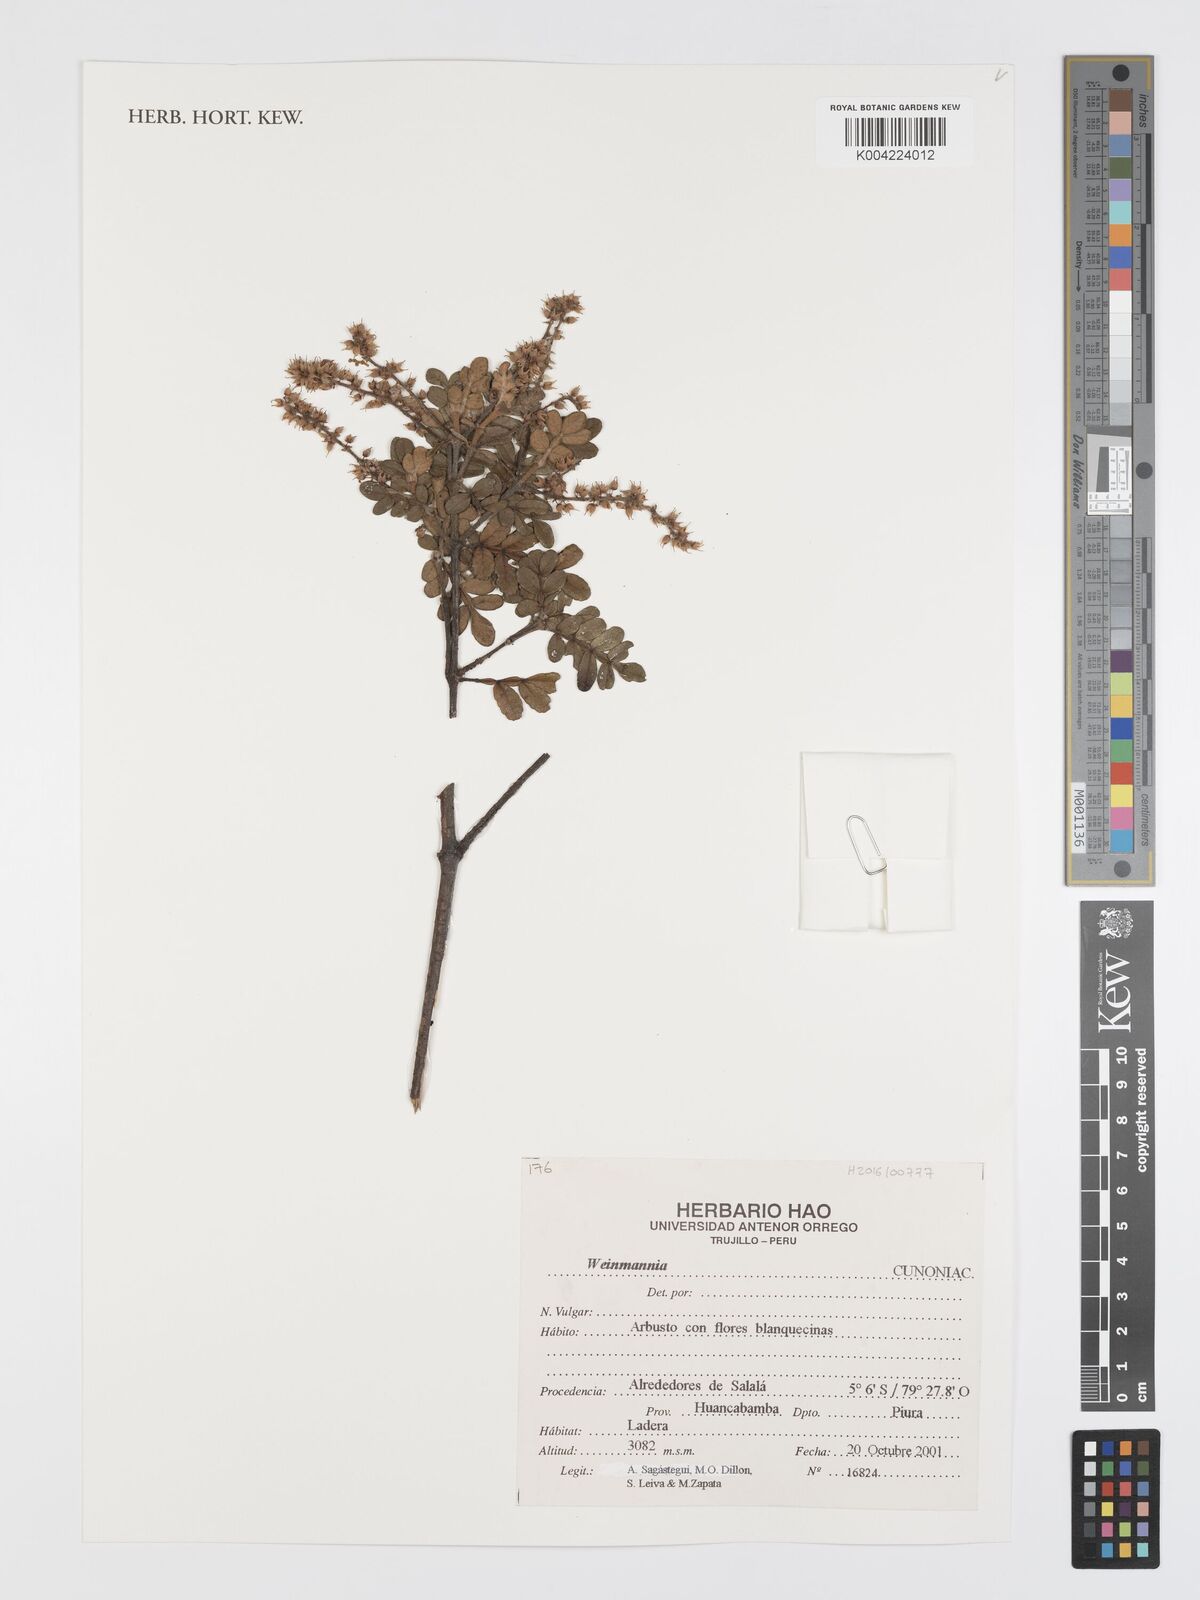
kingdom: Plantae
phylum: Tracheophyta
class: Magnoliopsida
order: Oxalidales
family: Cunoniaceae
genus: Weinmannia
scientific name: Weinmannia
